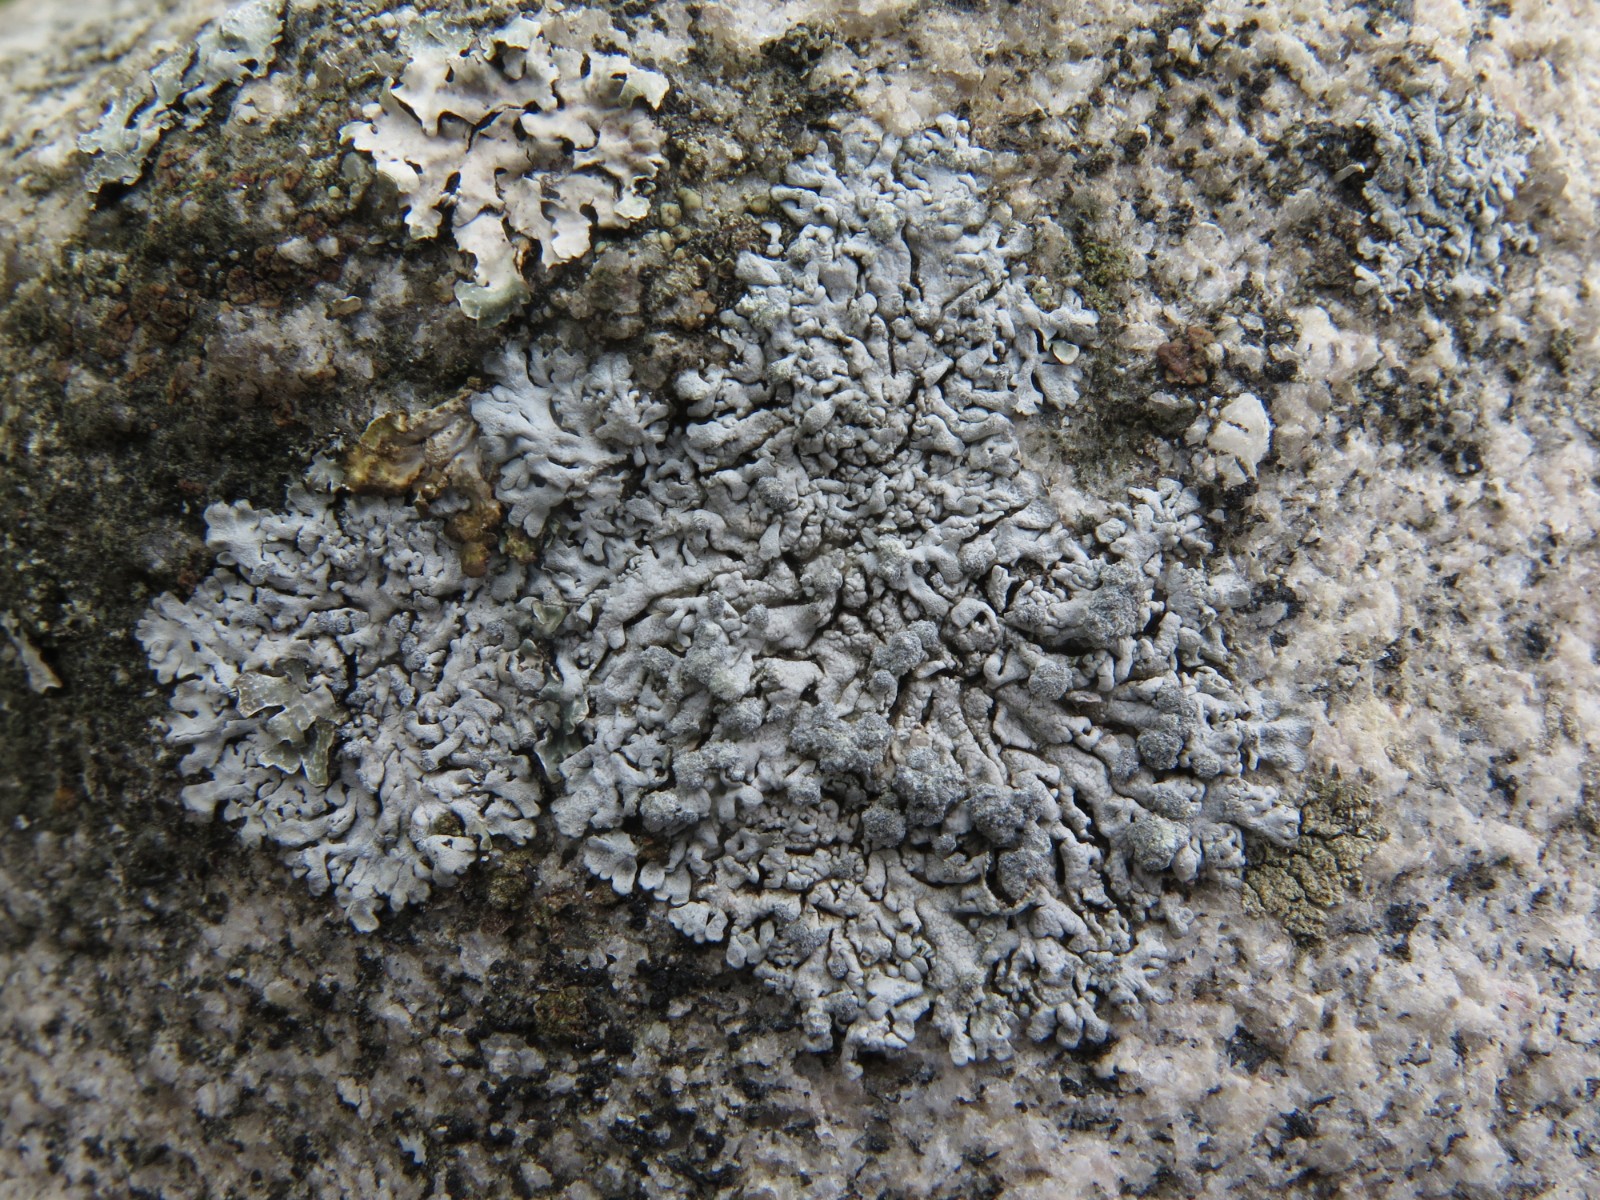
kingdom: Fungi
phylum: Ascomycota
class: Lecanoromycetes
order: Caliciales
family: Physciaceae
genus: Physcia
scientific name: Physcia caesia
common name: blågrå rosetlav
